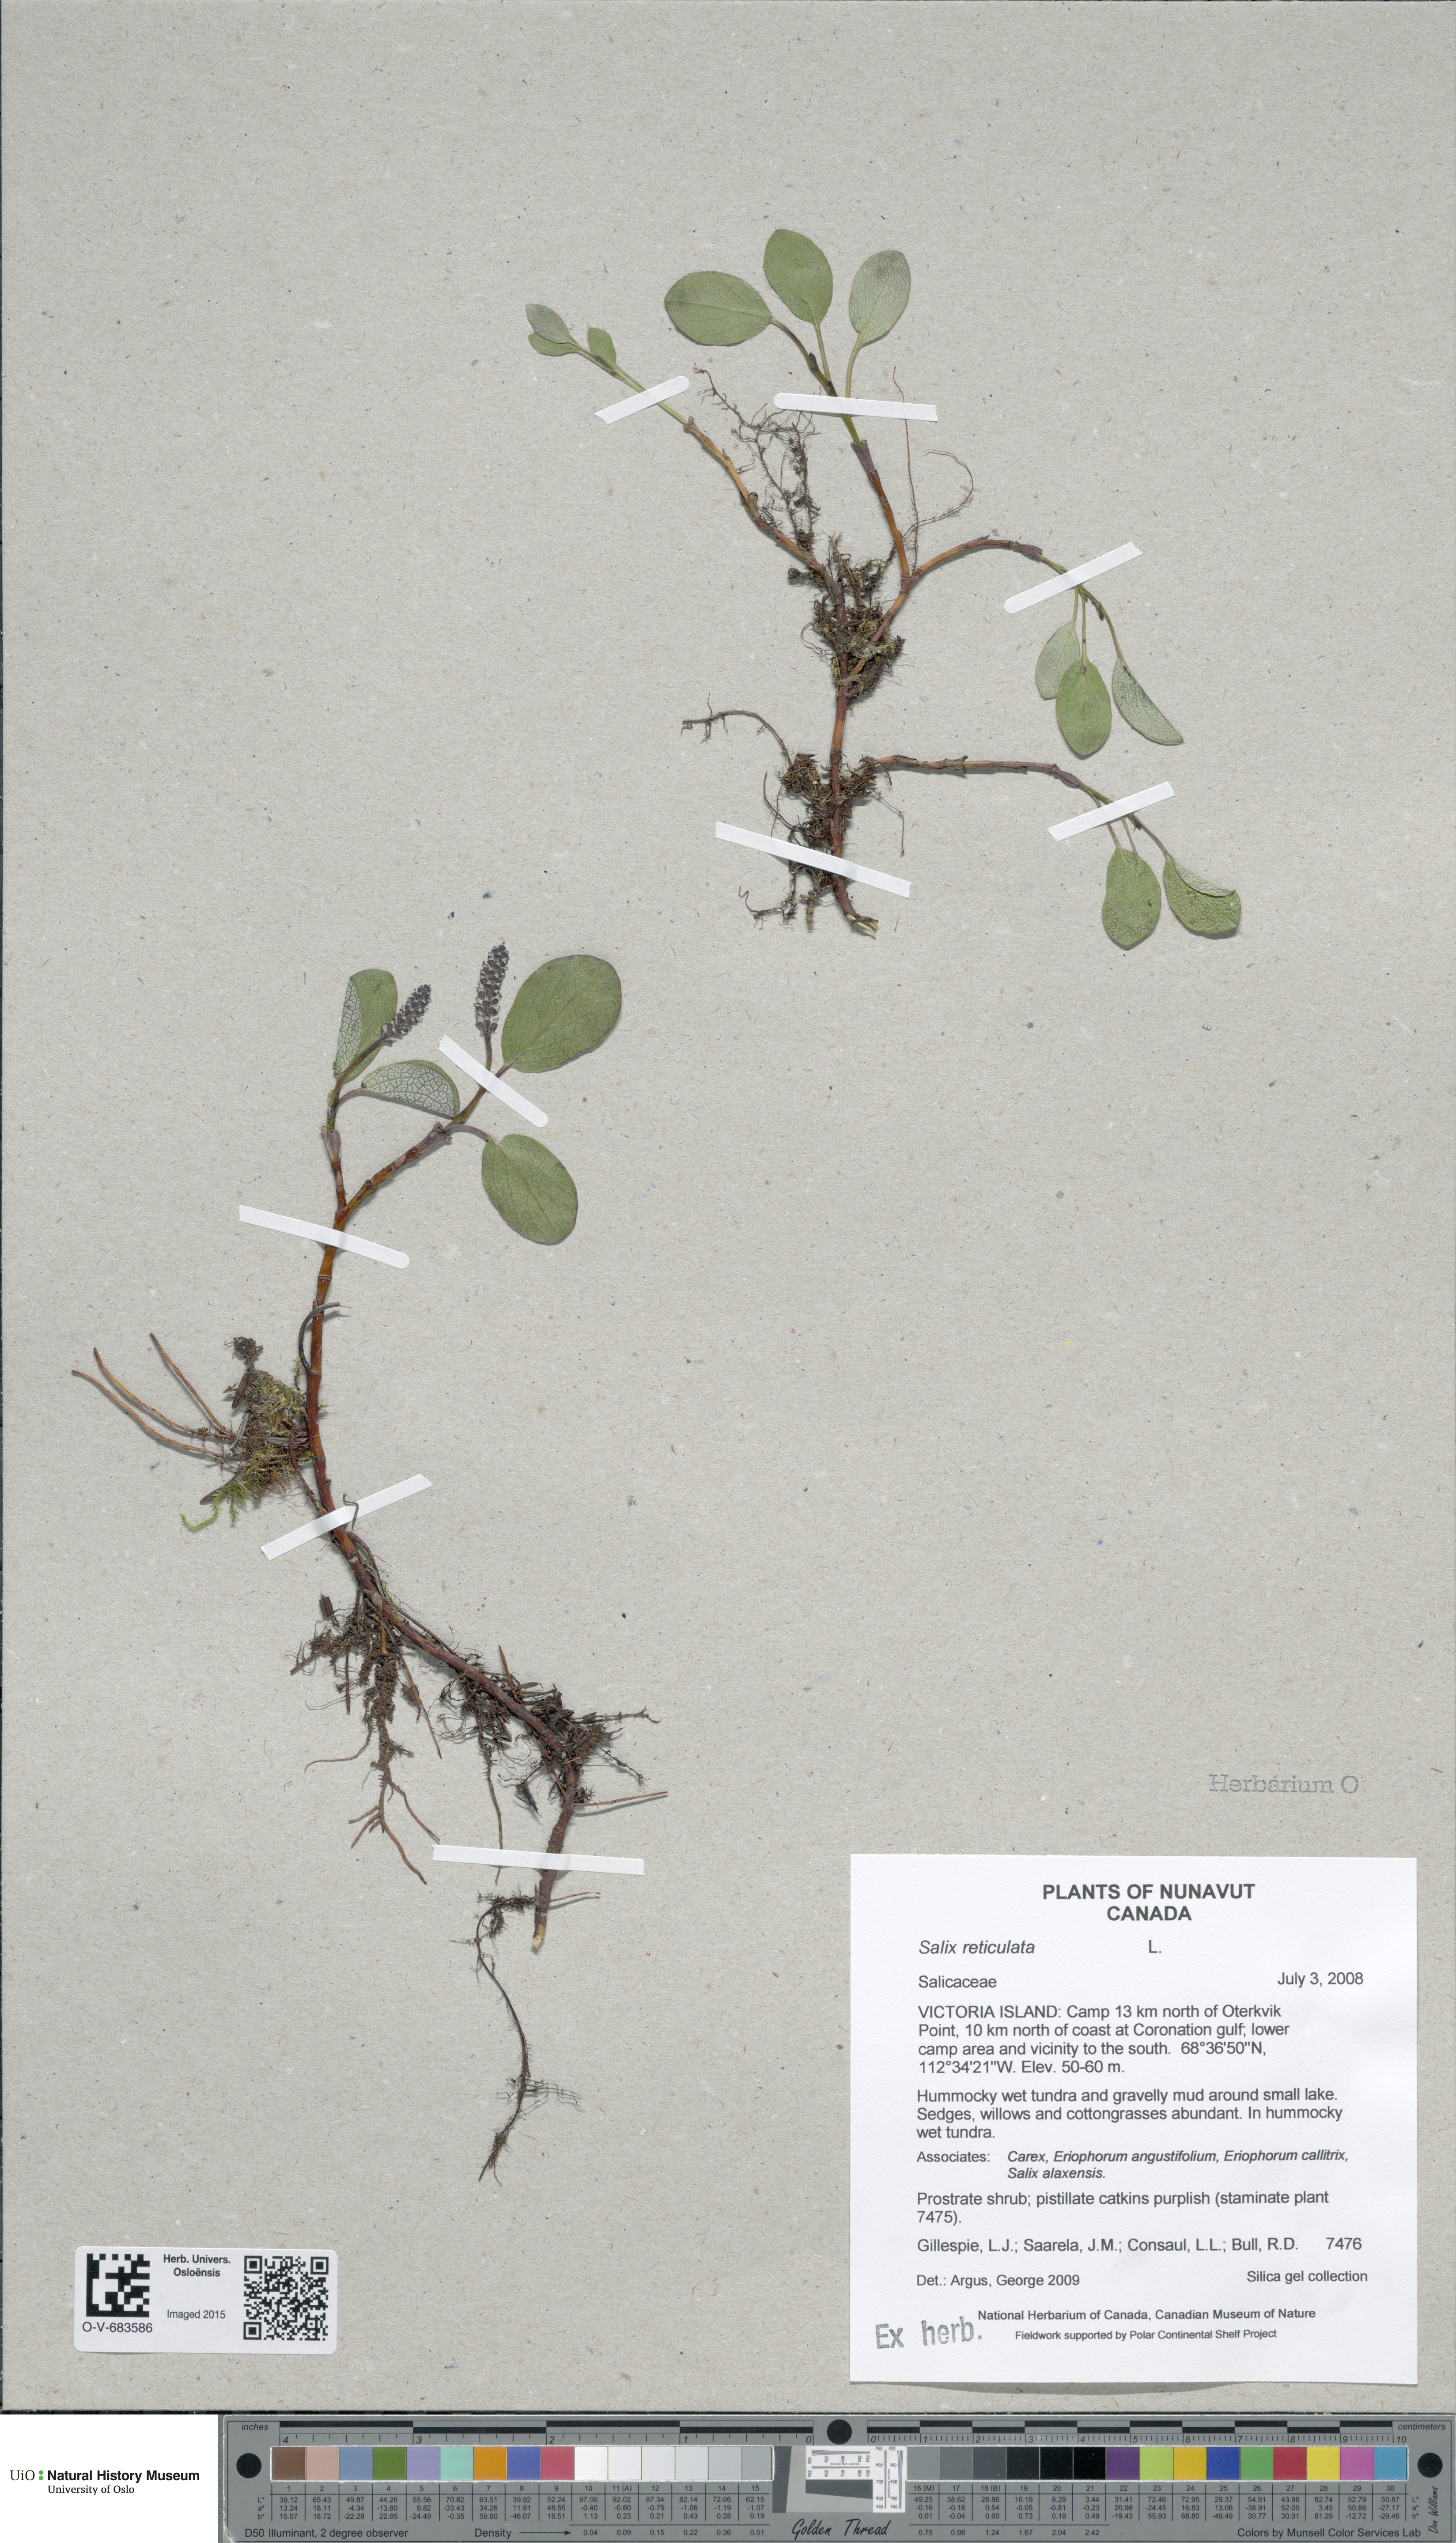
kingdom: Plantae
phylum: Tracheophyta
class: Magnoliopsida
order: Malpighiales
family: Salicaceae
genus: Salix
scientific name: Salix reticulata
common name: Net-leaved willow
